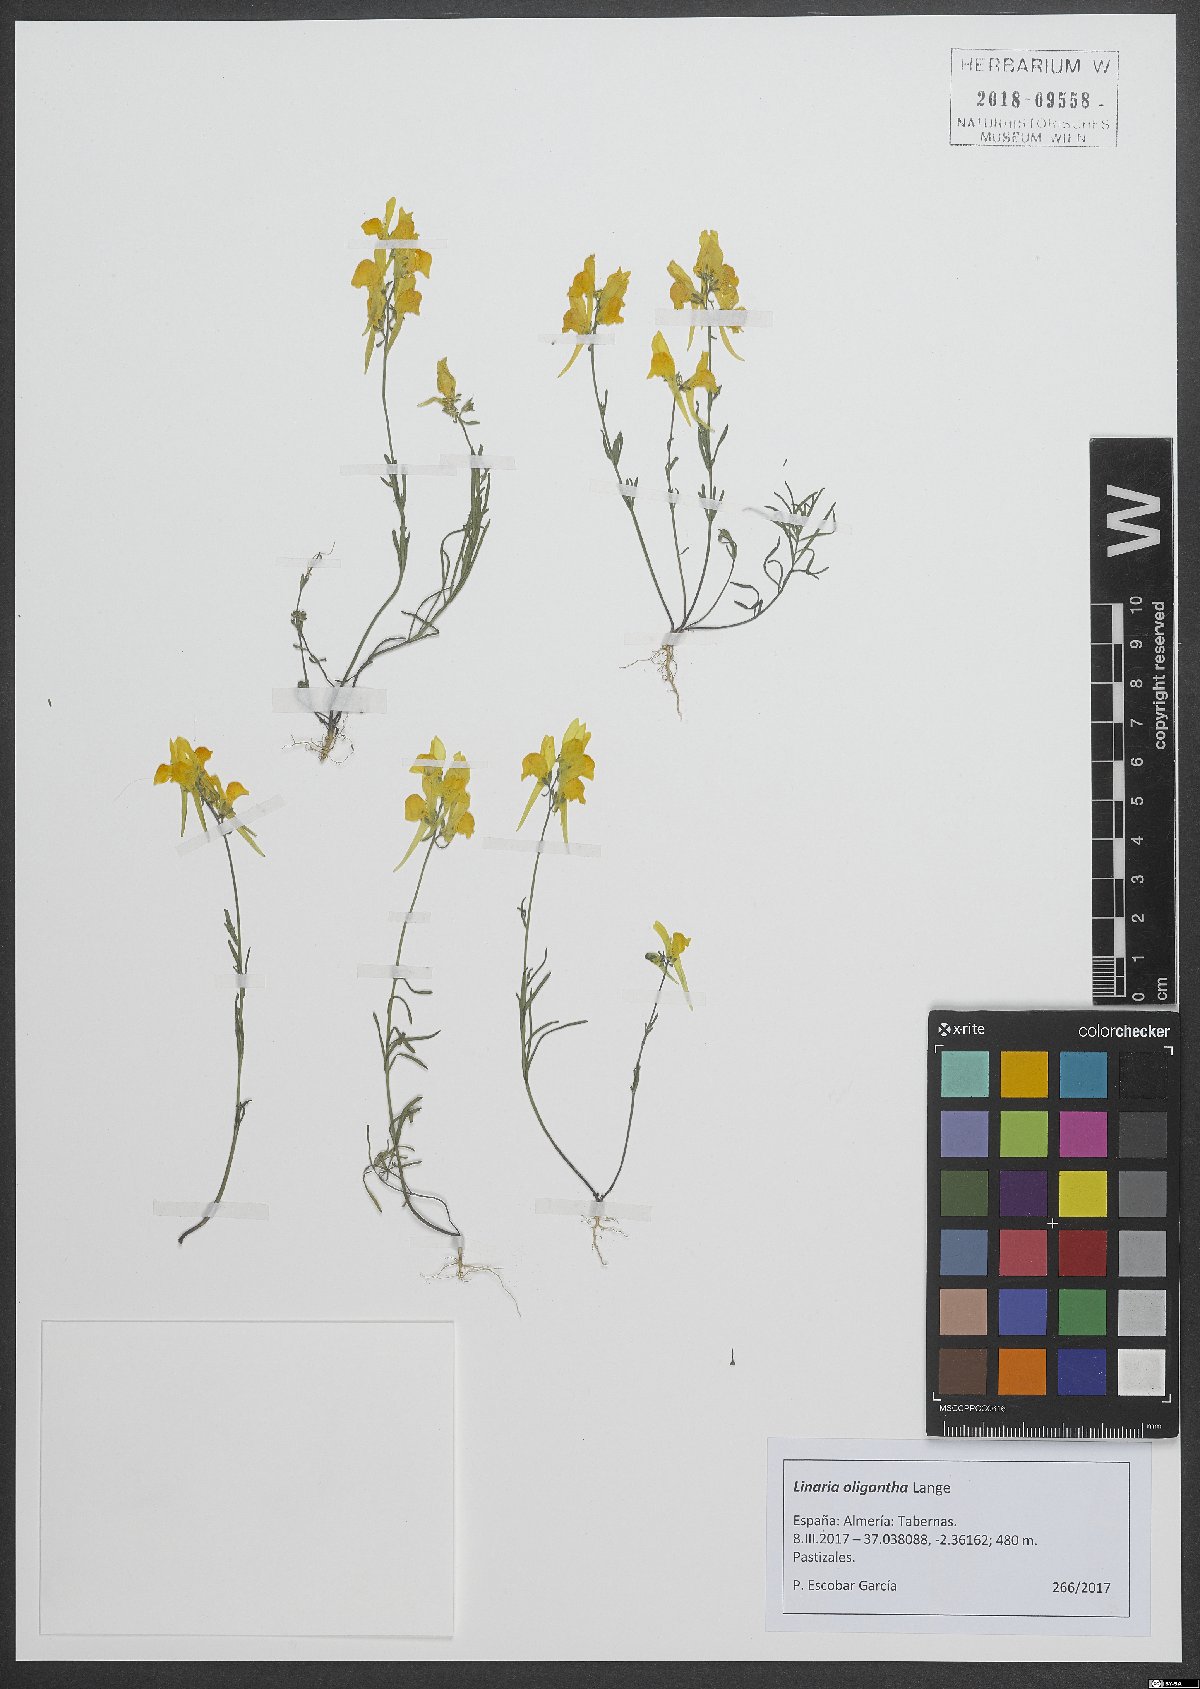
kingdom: Plantae
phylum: Tracheophyta
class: Magnoliopsida
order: Lamiales
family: Plantaginaceae
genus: Linaria
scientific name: Linaria oligantha
